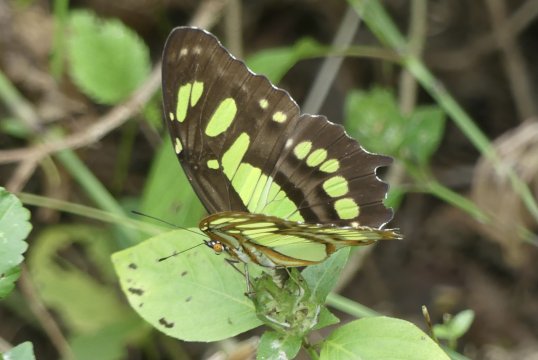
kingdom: Animalia
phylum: Arthropoda
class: Insecta
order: Lepidoptera
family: Nymphalidae
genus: Siproeta
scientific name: Siproeta stelenes
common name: Malachite
